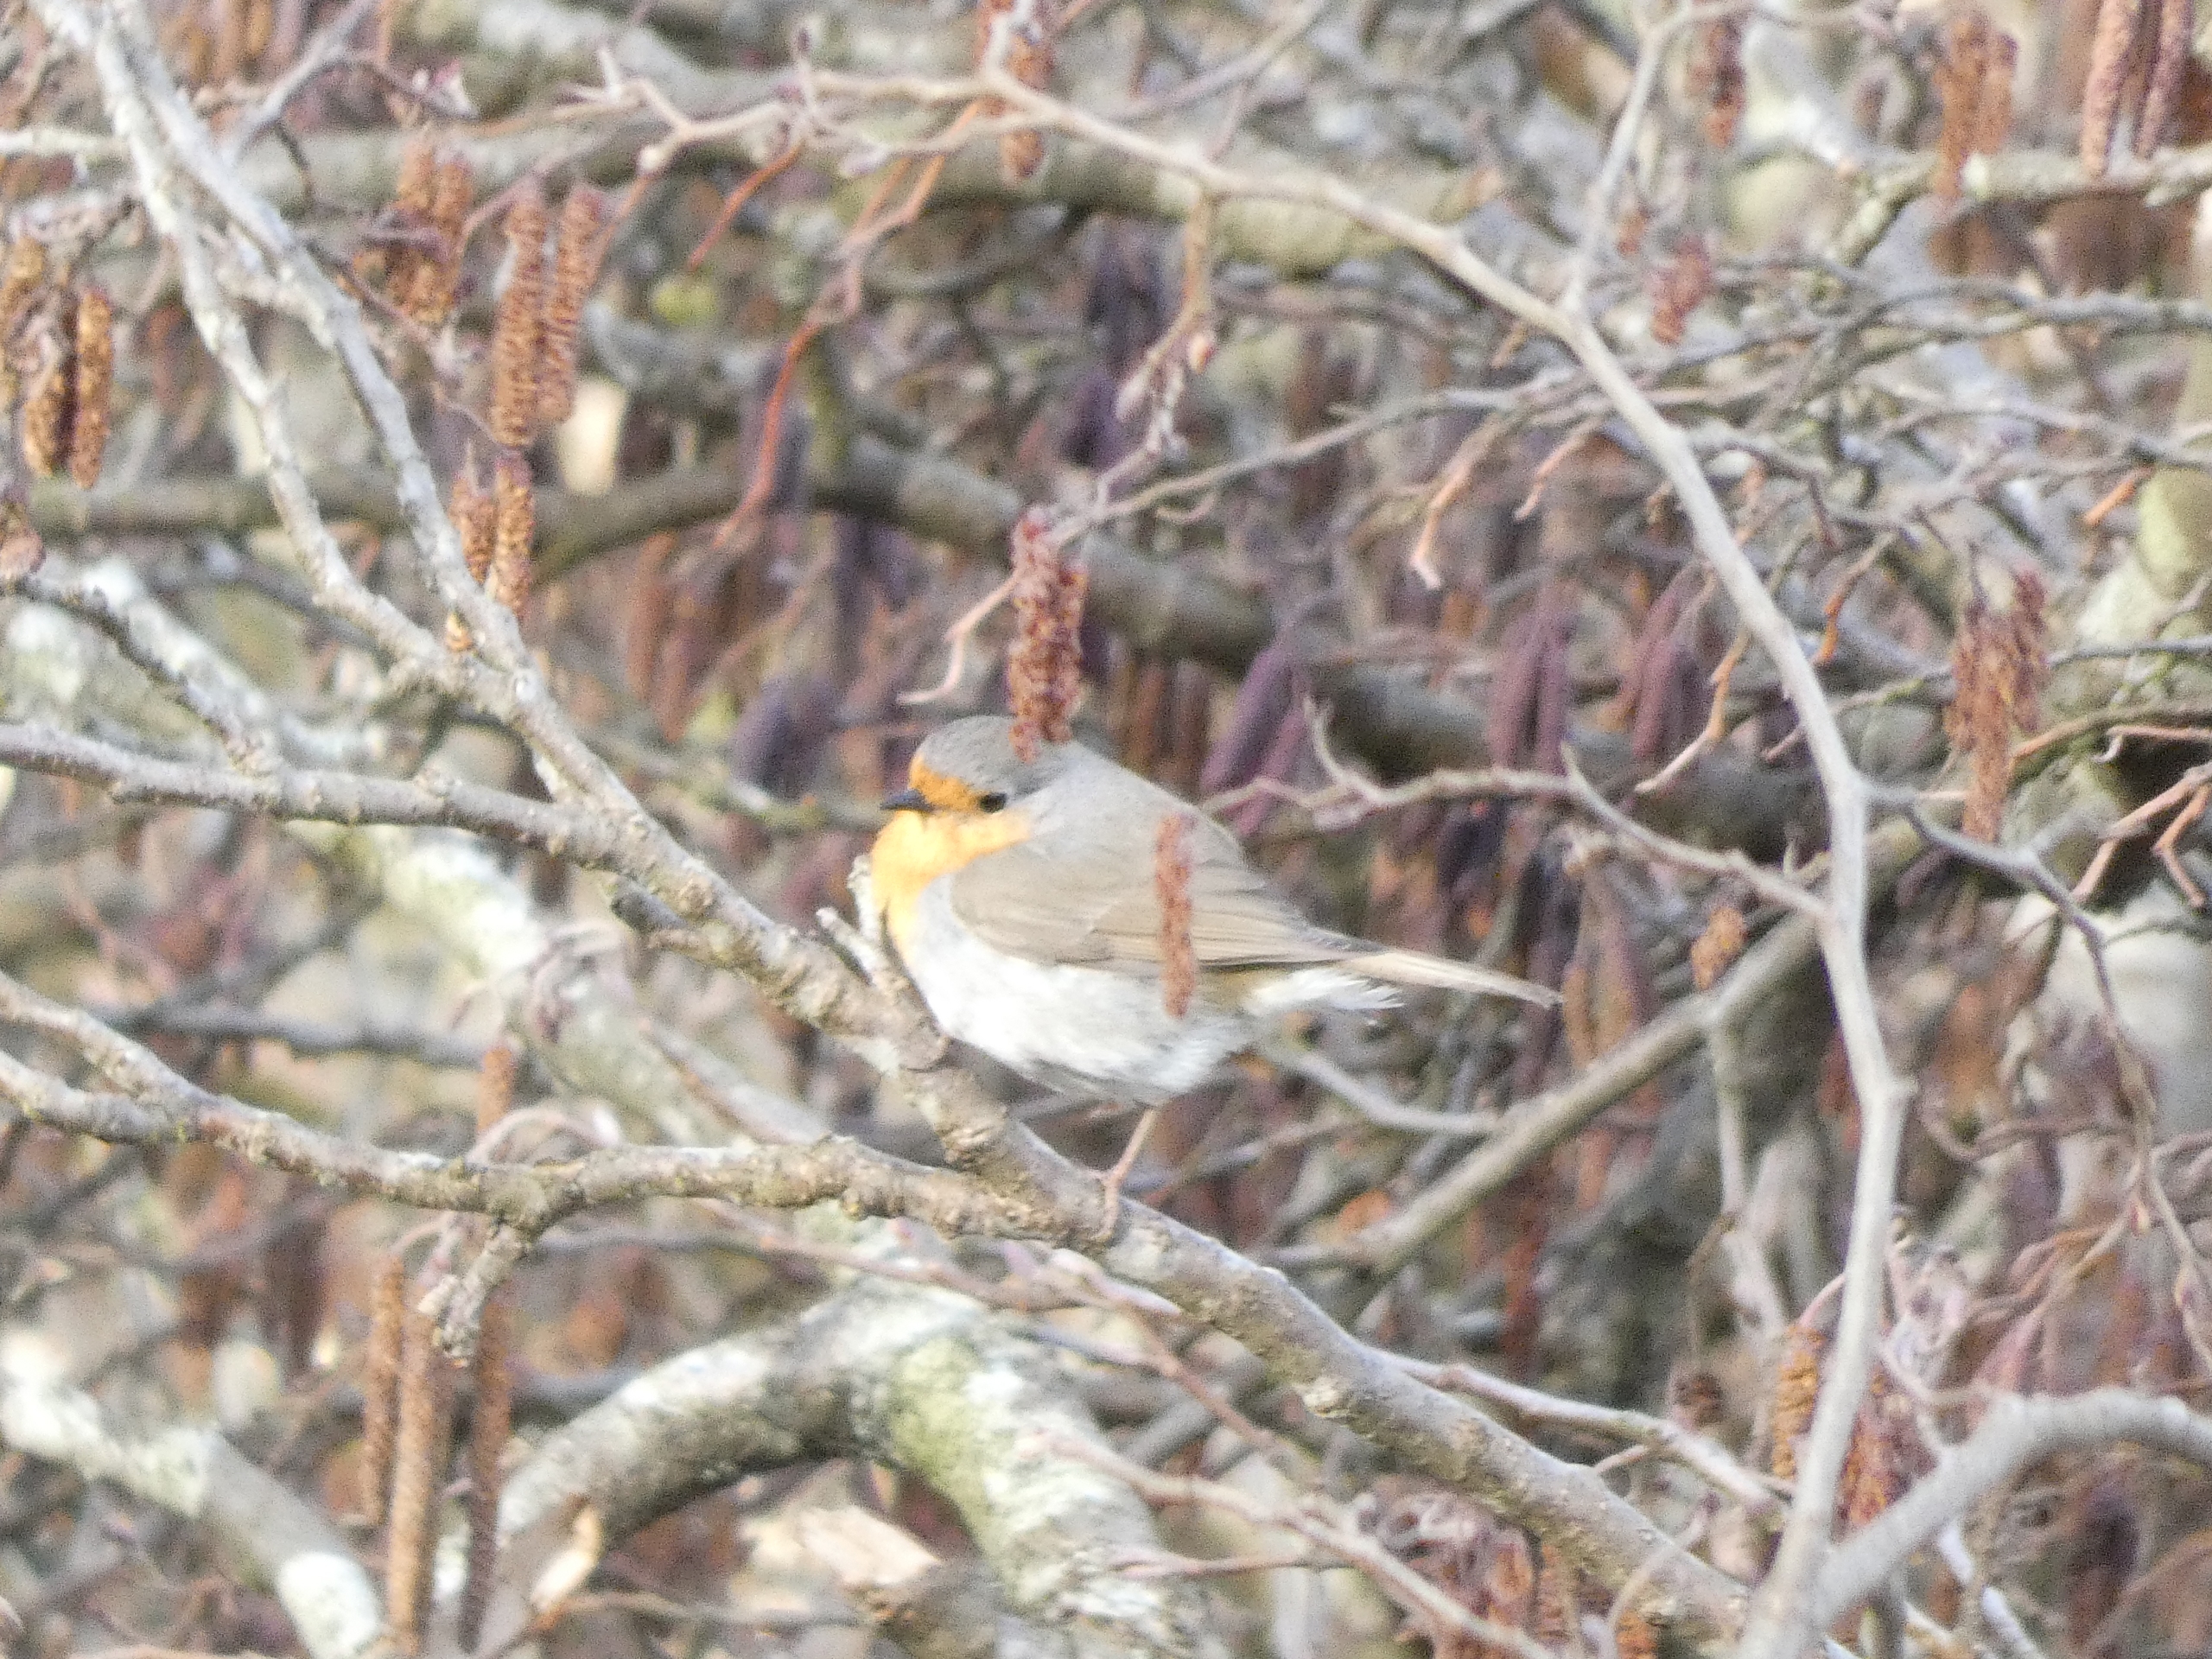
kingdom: Animalia
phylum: Chordata
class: Aves
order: Passeriformes
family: Muscicapidae
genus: Erithacus
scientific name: Erithacus rubecula
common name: Rødhals/rødkælk
